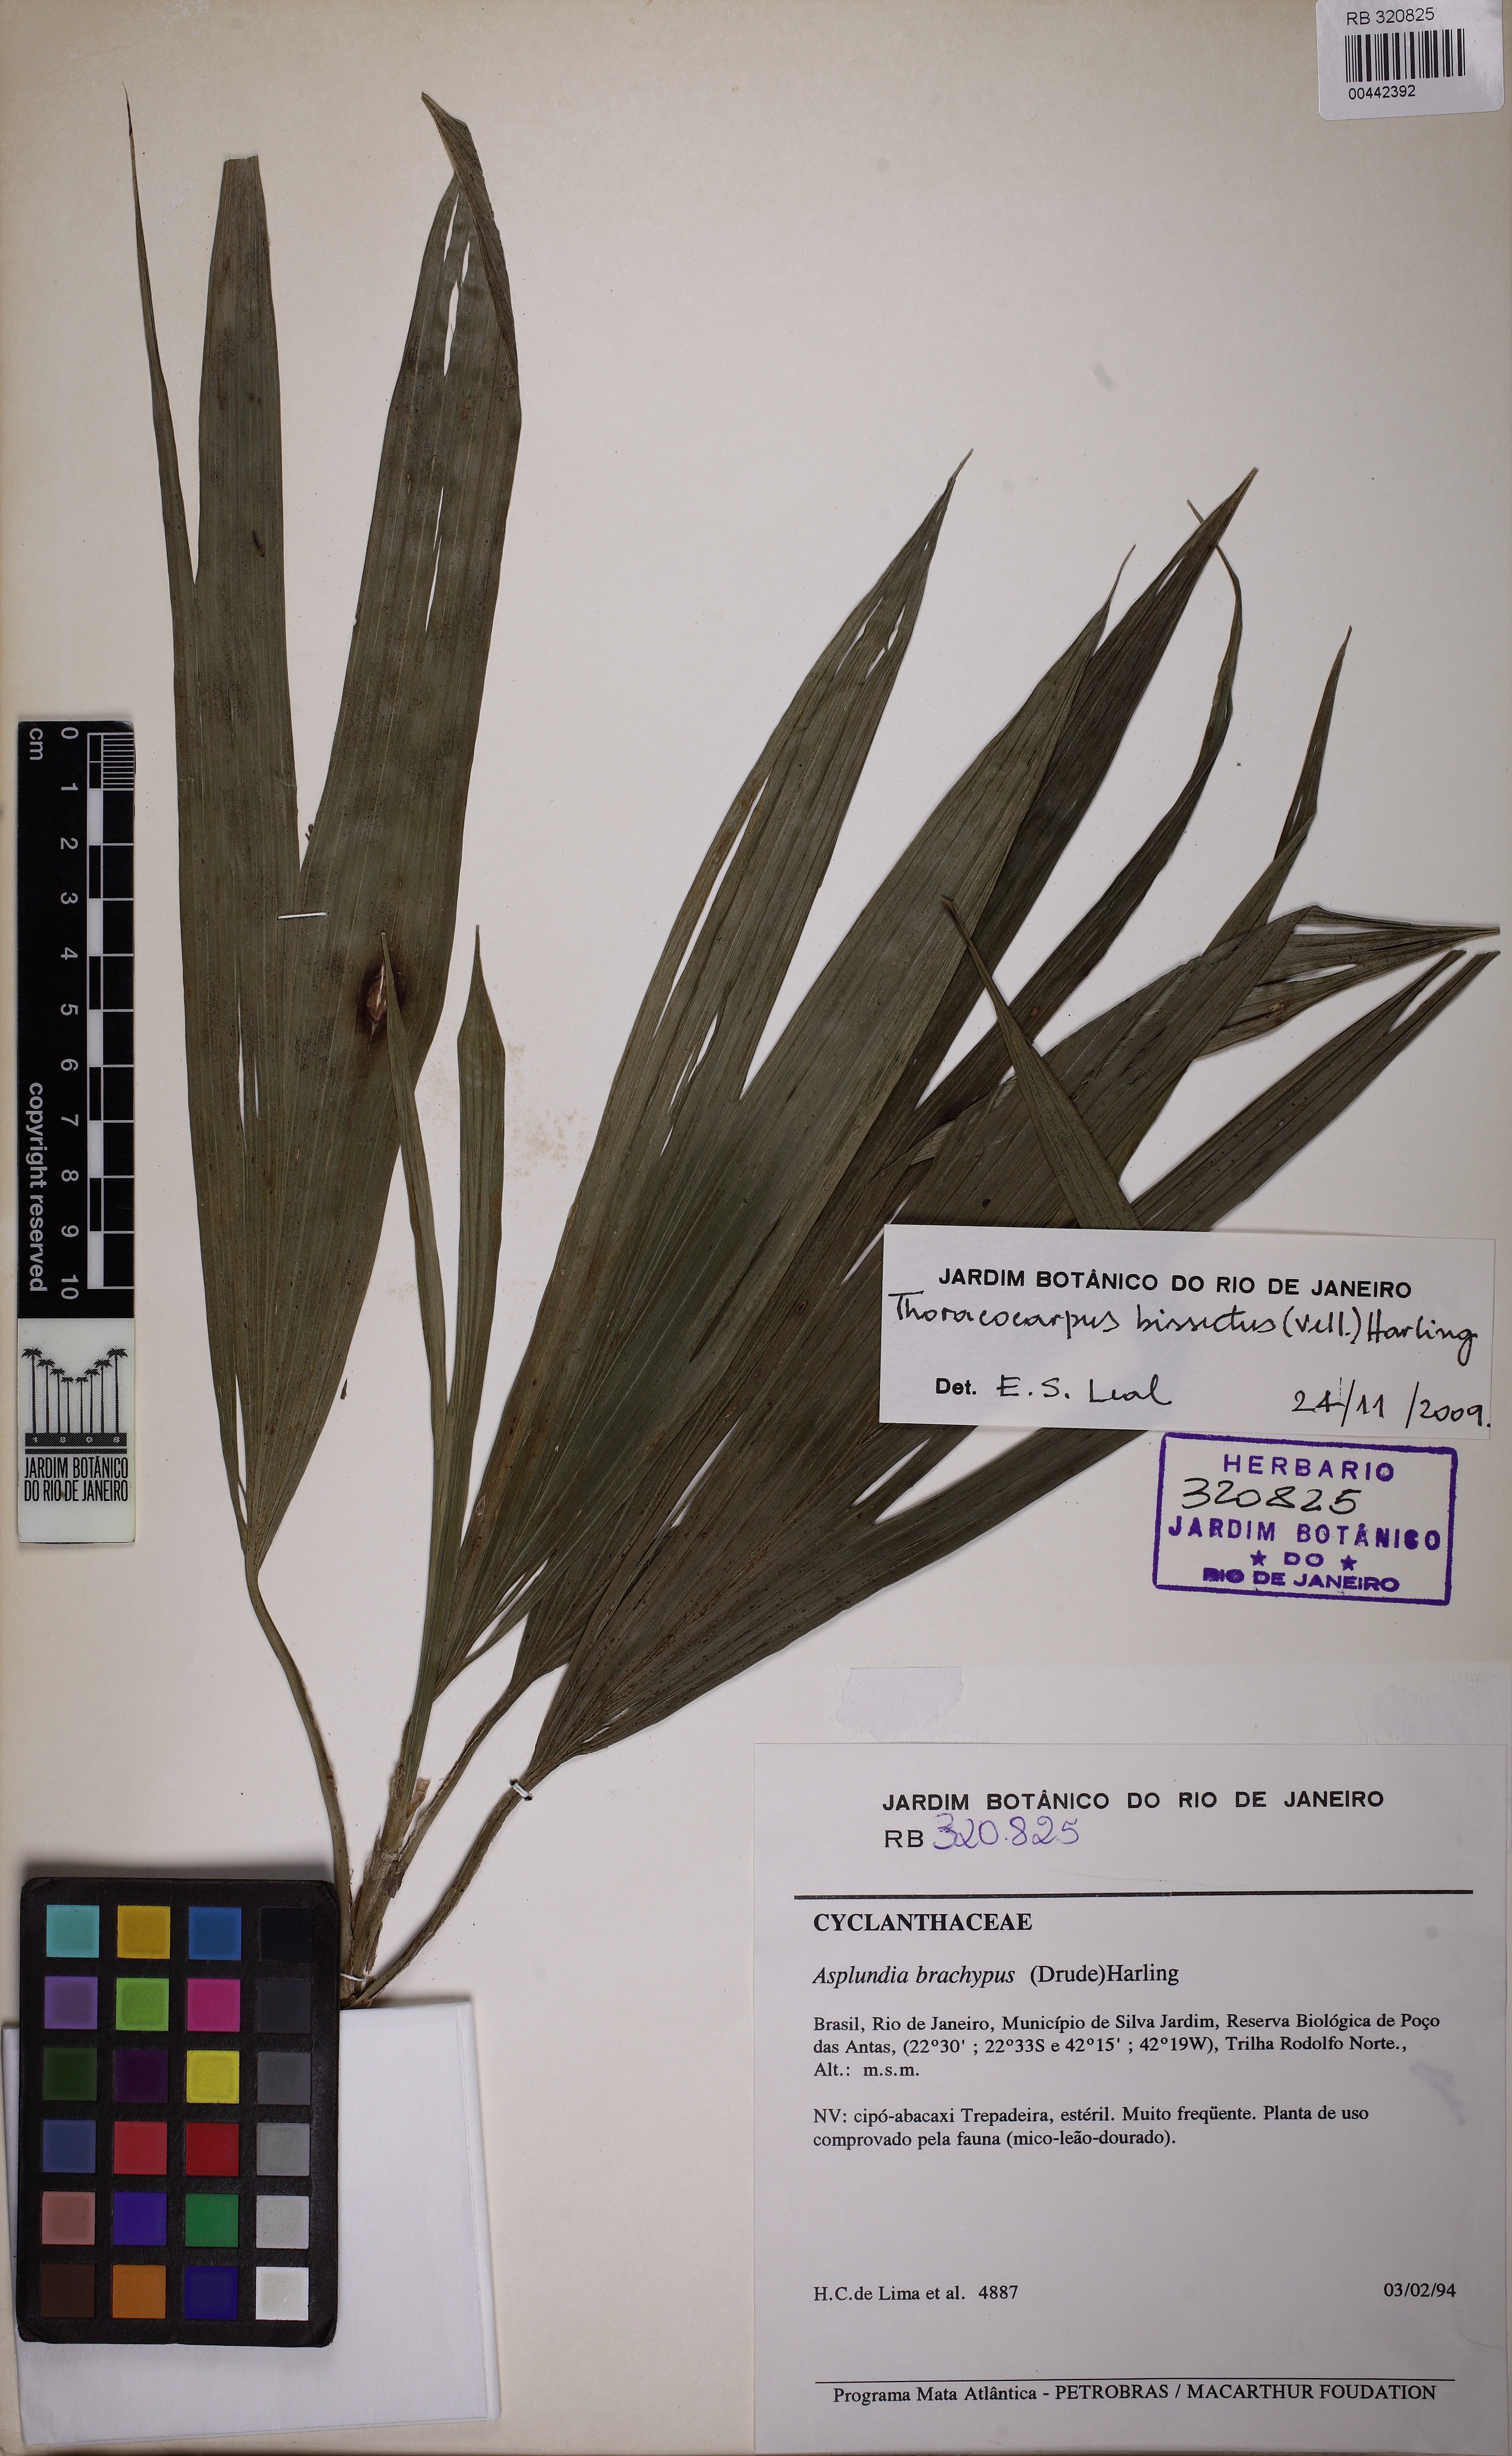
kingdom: Plantae
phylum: Tracheophyta
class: Liliopsida
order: Pandanales
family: Cyclanthaceae
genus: Thoracocarpus
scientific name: Thoracocarpus bissectus
